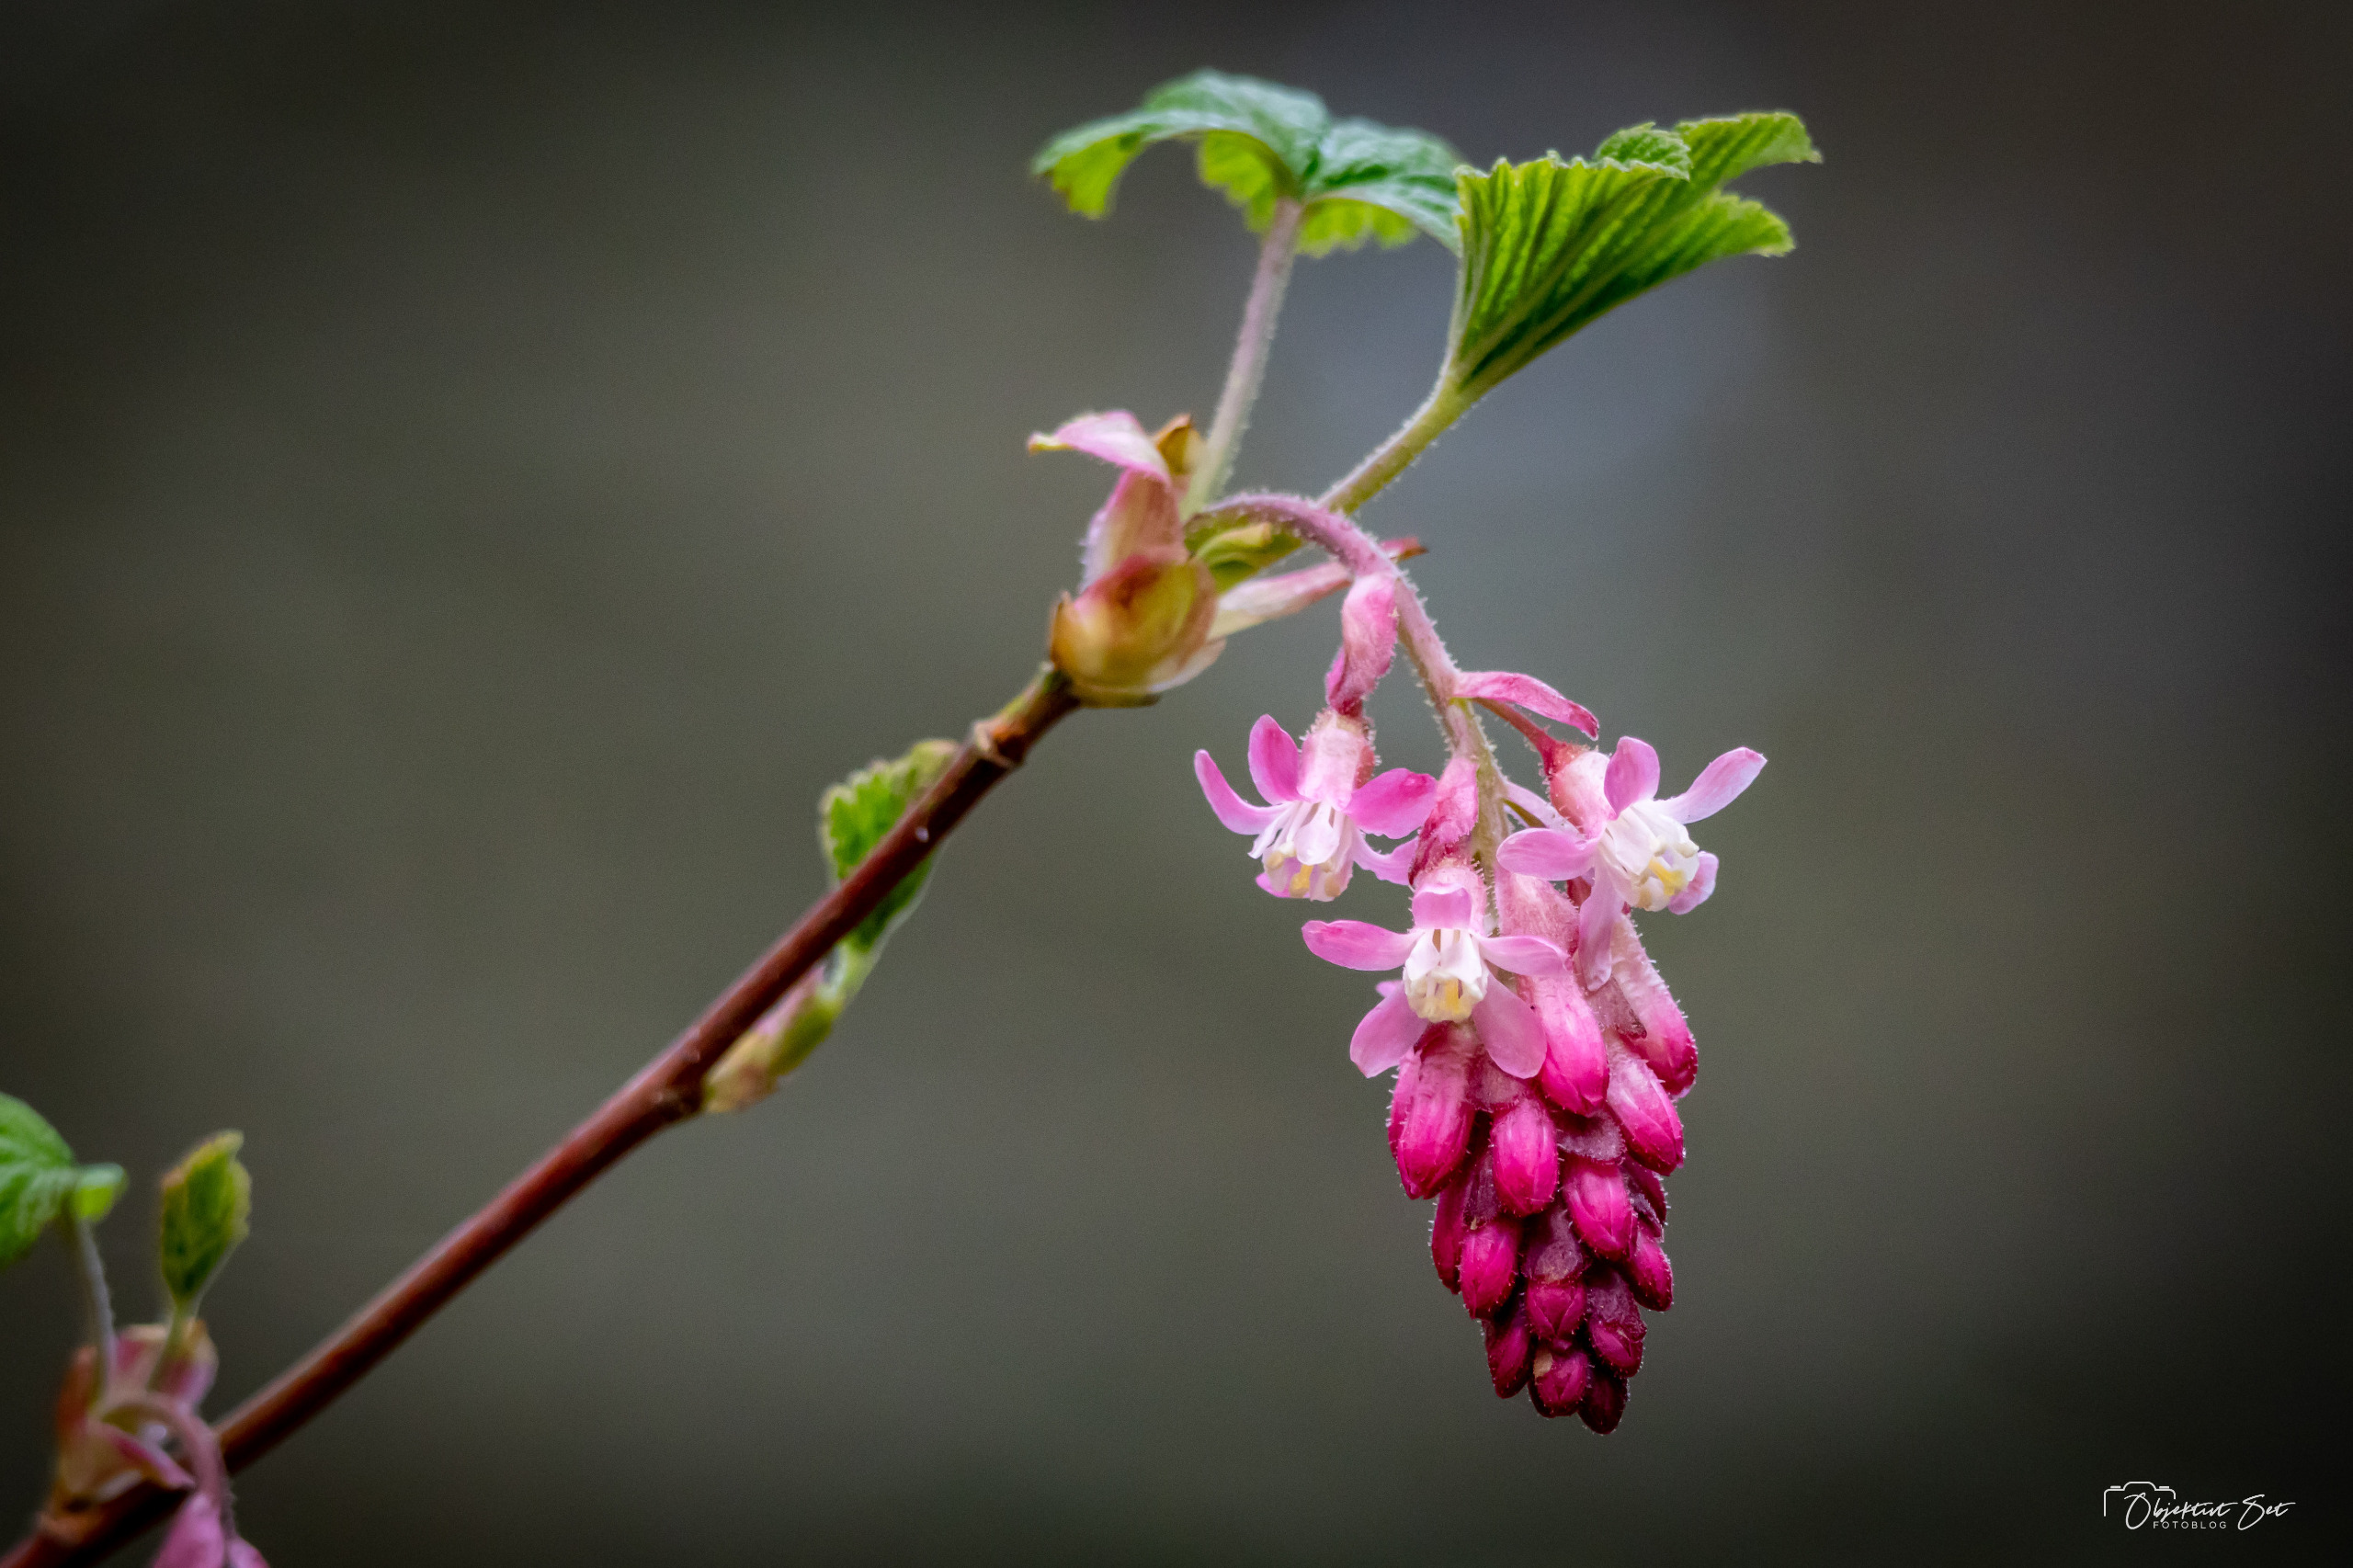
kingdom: Plantae
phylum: Tracheophyta
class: Magnoliopsida
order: Saxifragales
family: Grossulariaceae
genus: Ribes
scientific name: Ribes sanguineum
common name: Blod-ribs
